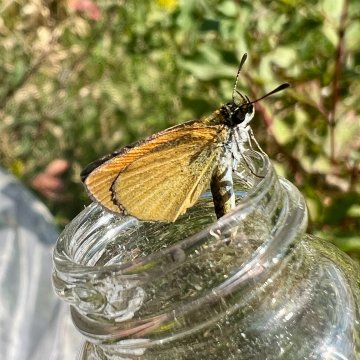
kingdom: Animalia
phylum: Arthropoda
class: Insecta
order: Lepidoptera
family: Hesperiidae
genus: Ancyloxypha
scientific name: Ancyloxypha numitor
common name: Least Skipper
